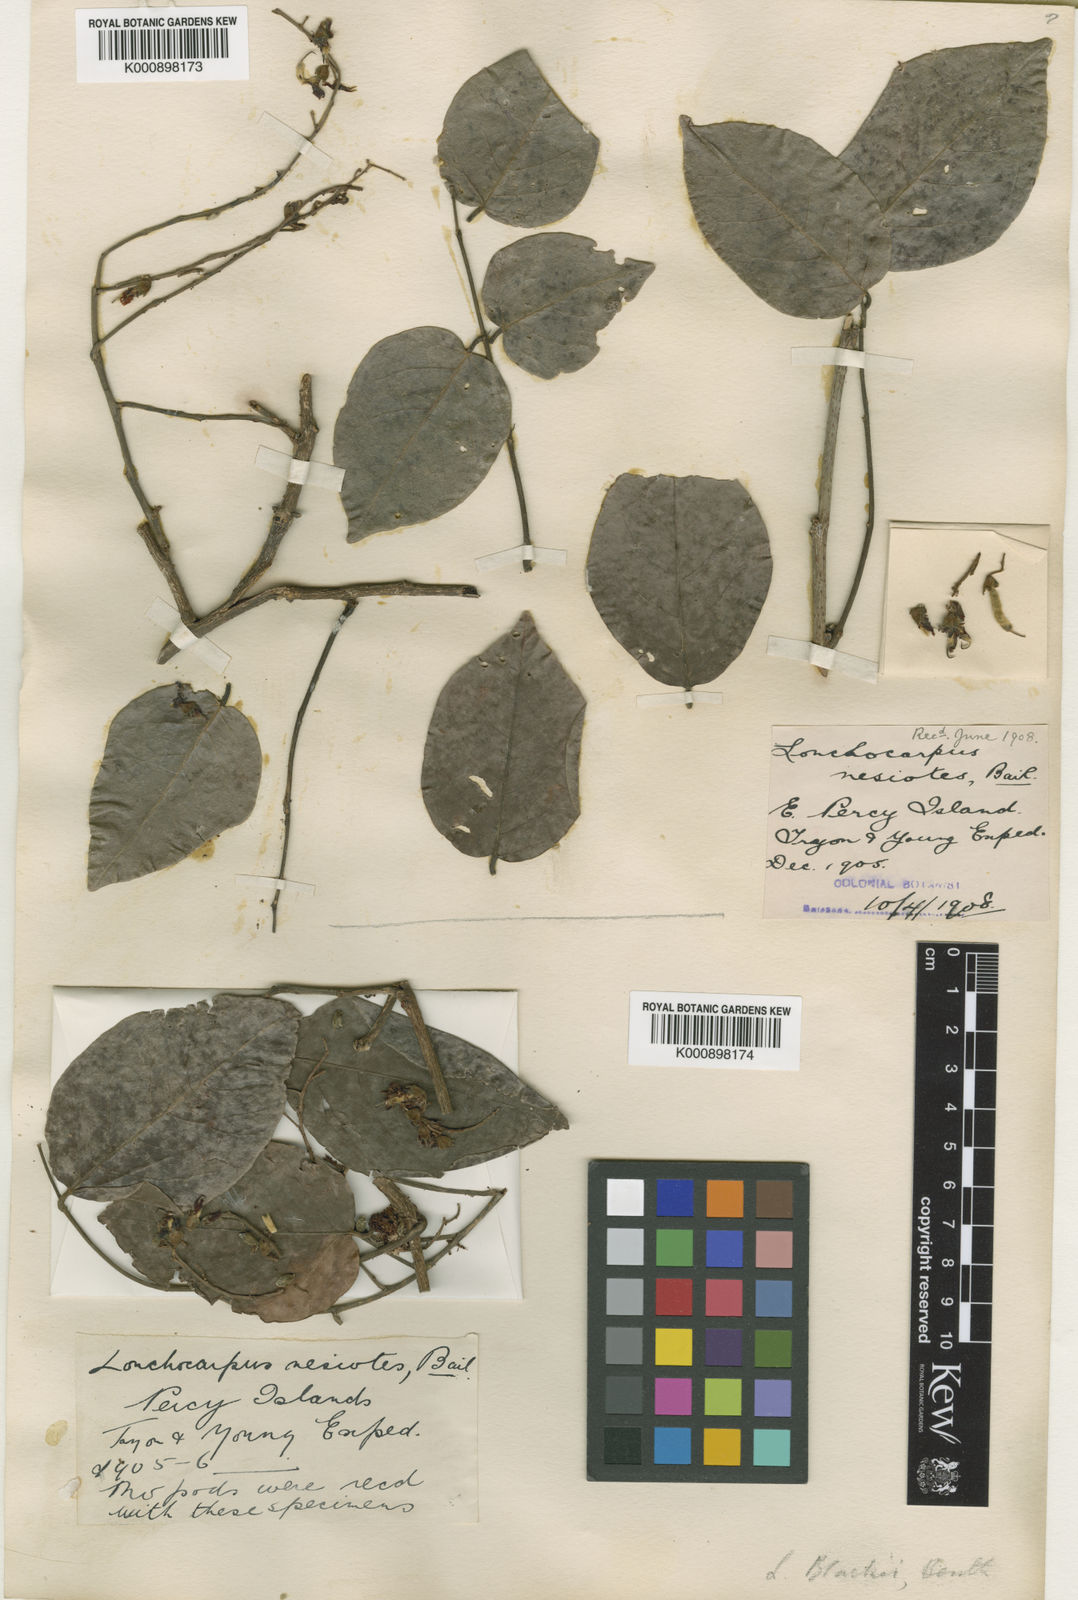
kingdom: Plantae
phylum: Tracheophyta
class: Magnoliopsida
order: Fabales
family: Fabaceae
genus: Austrosteenisia
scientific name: Austrosteenisia blackii
